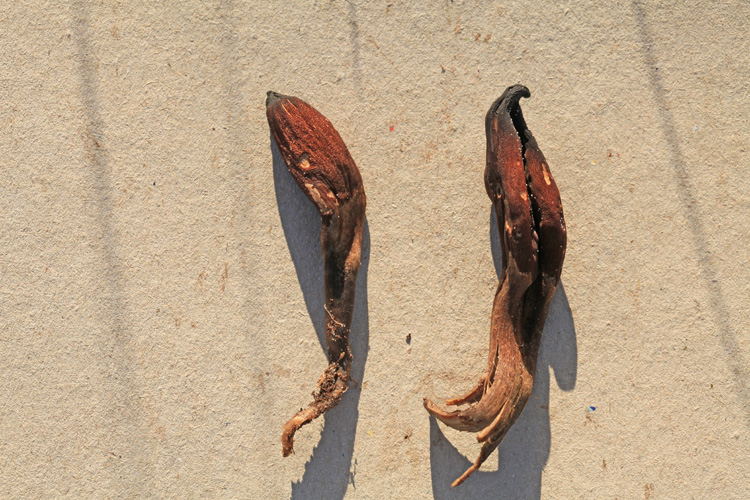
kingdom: Fungi
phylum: Ascomycota
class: Geoglossomycetes
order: Geoglossales
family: Geoglossaceae
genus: Geoglossum
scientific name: Geoglossum atropurpureum
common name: purpursort farvetunge
